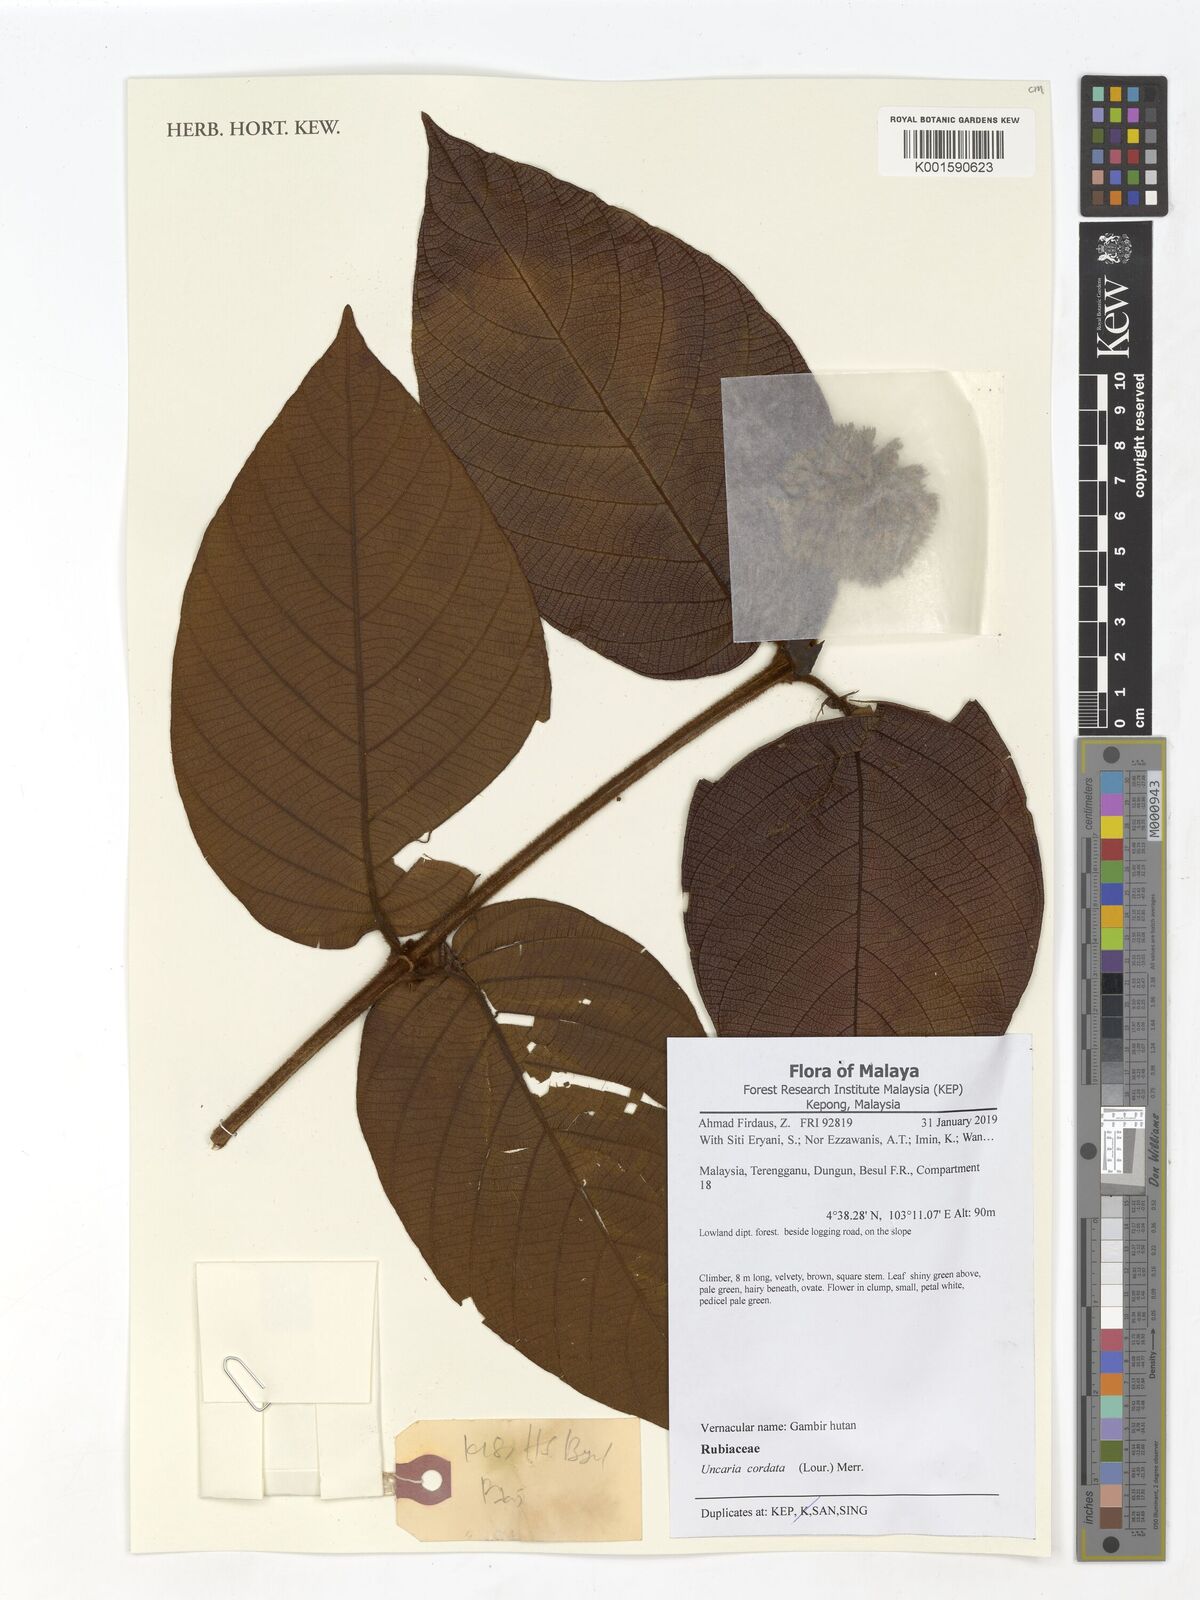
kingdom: Plantae
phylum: Tracheophyta
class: Magnoliopsida
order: Gentianales
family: Rubiaceae
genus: Uncaria
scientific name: Uncaria cordata
